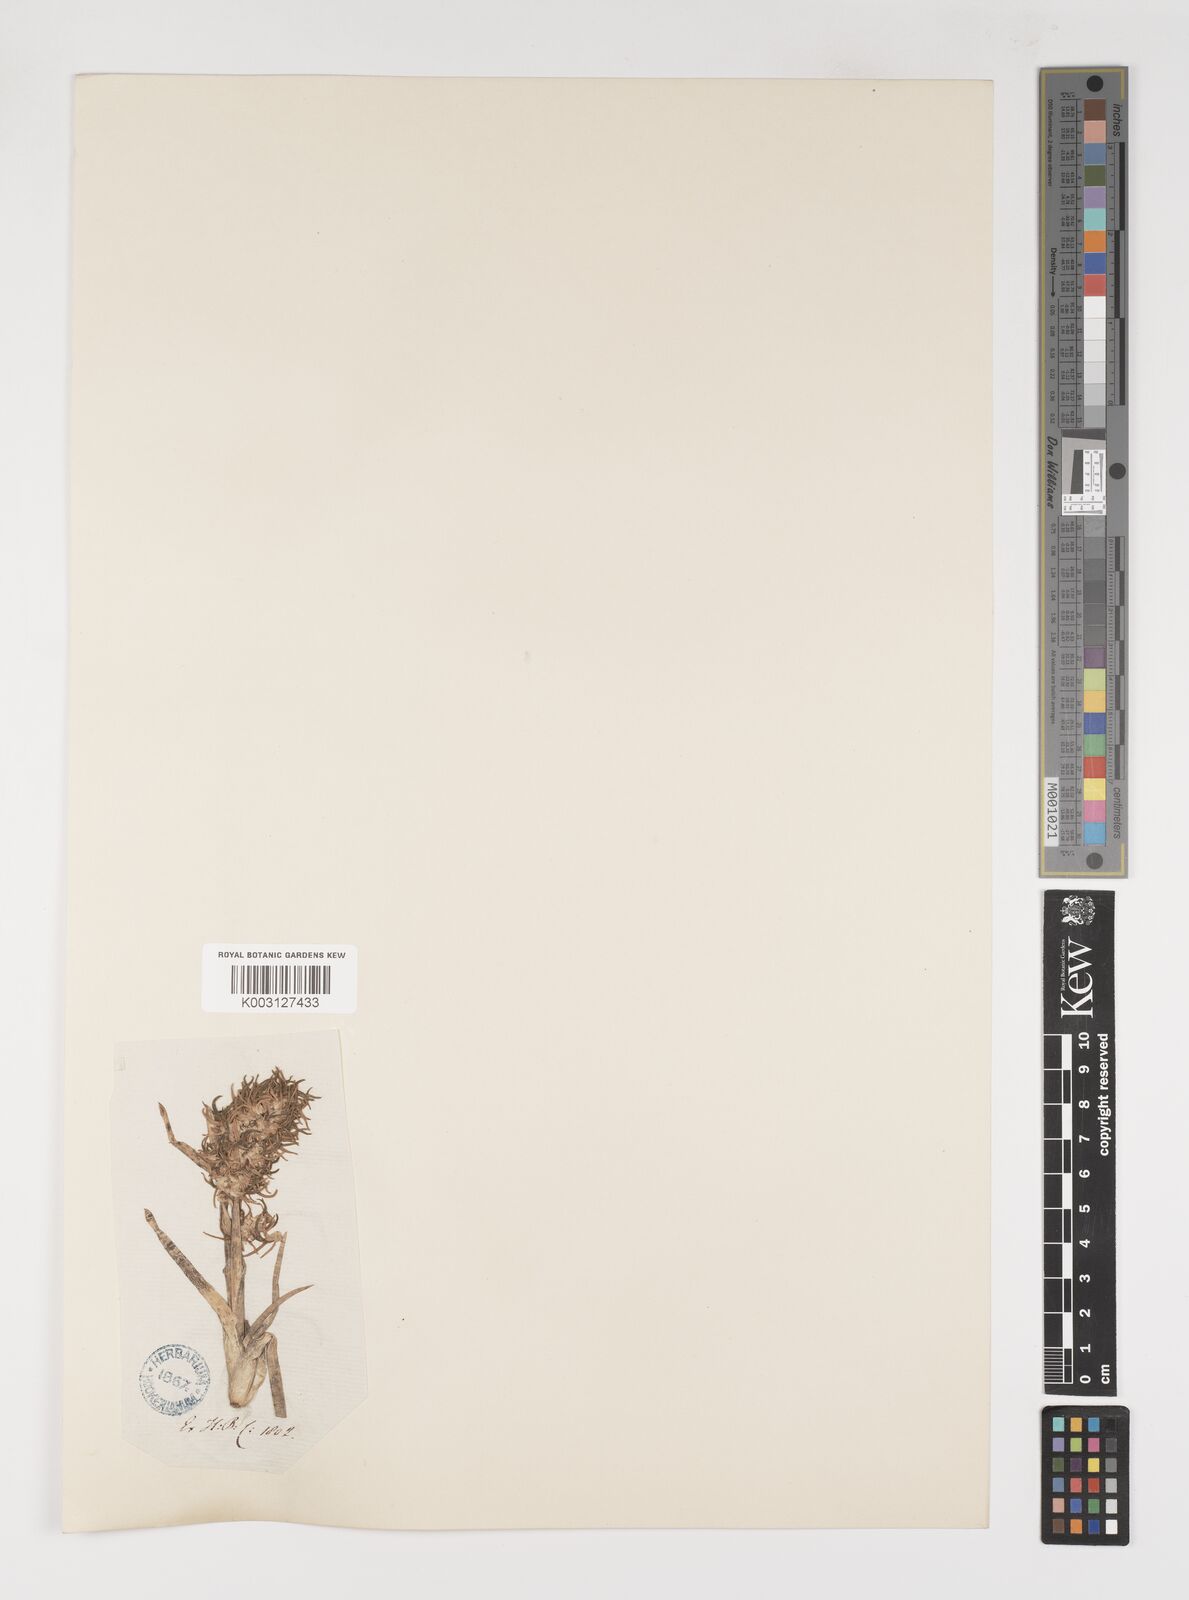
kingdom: Plantae
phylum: Tracheophyta
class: Liliopsida
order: Poales
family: Poaceae
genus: Poa
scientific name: Poa alpina
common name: Alpine bluegrass
